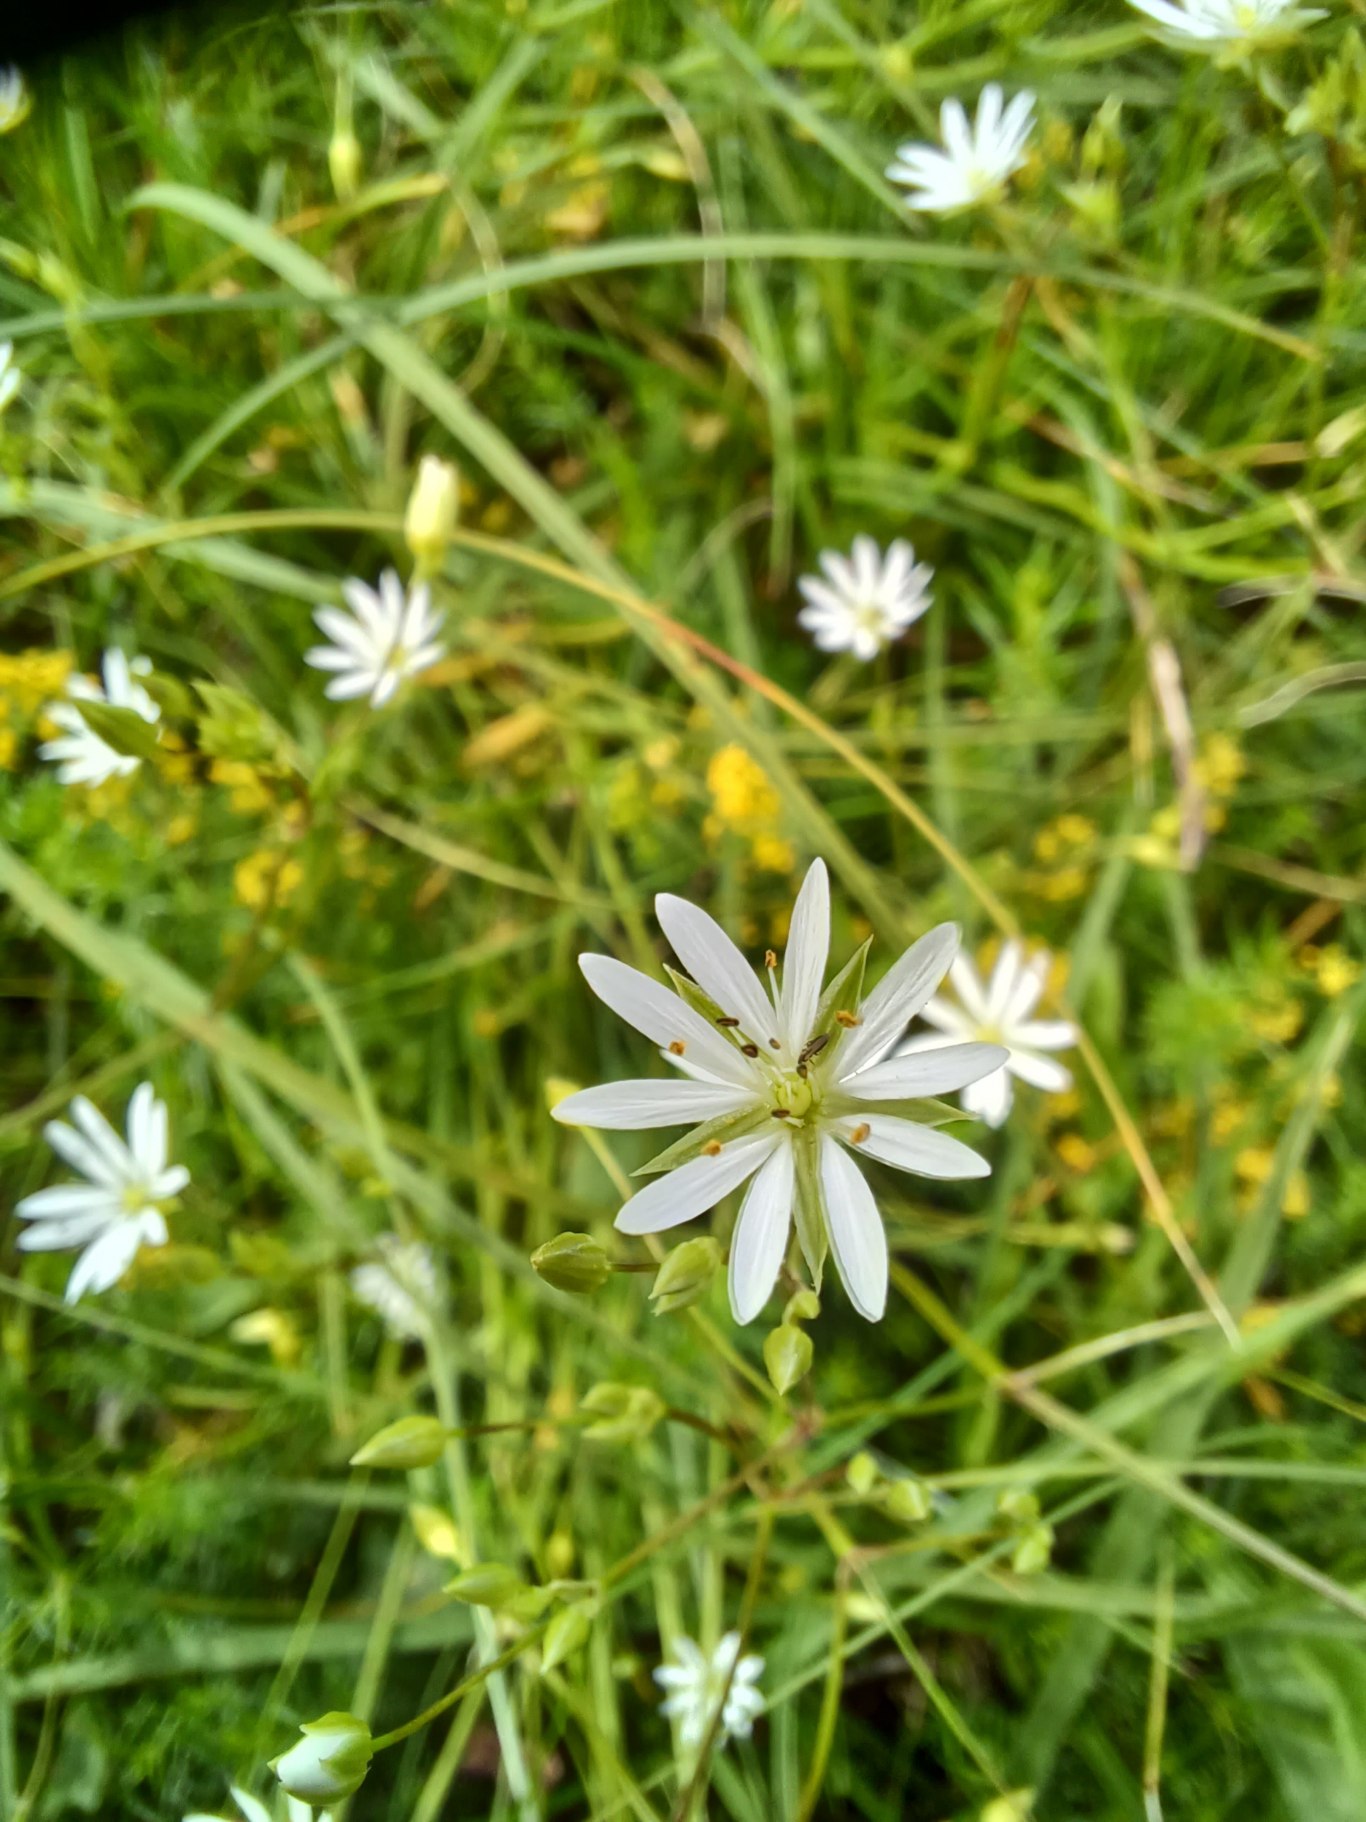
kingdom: Plantae
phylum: Tracheophyta
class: Magnoliopsida
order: Caryophyllales
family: Caryophyllaceae
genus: Stellaria
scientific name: Stellaria graminea
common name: Græsbladet fladstjerne
